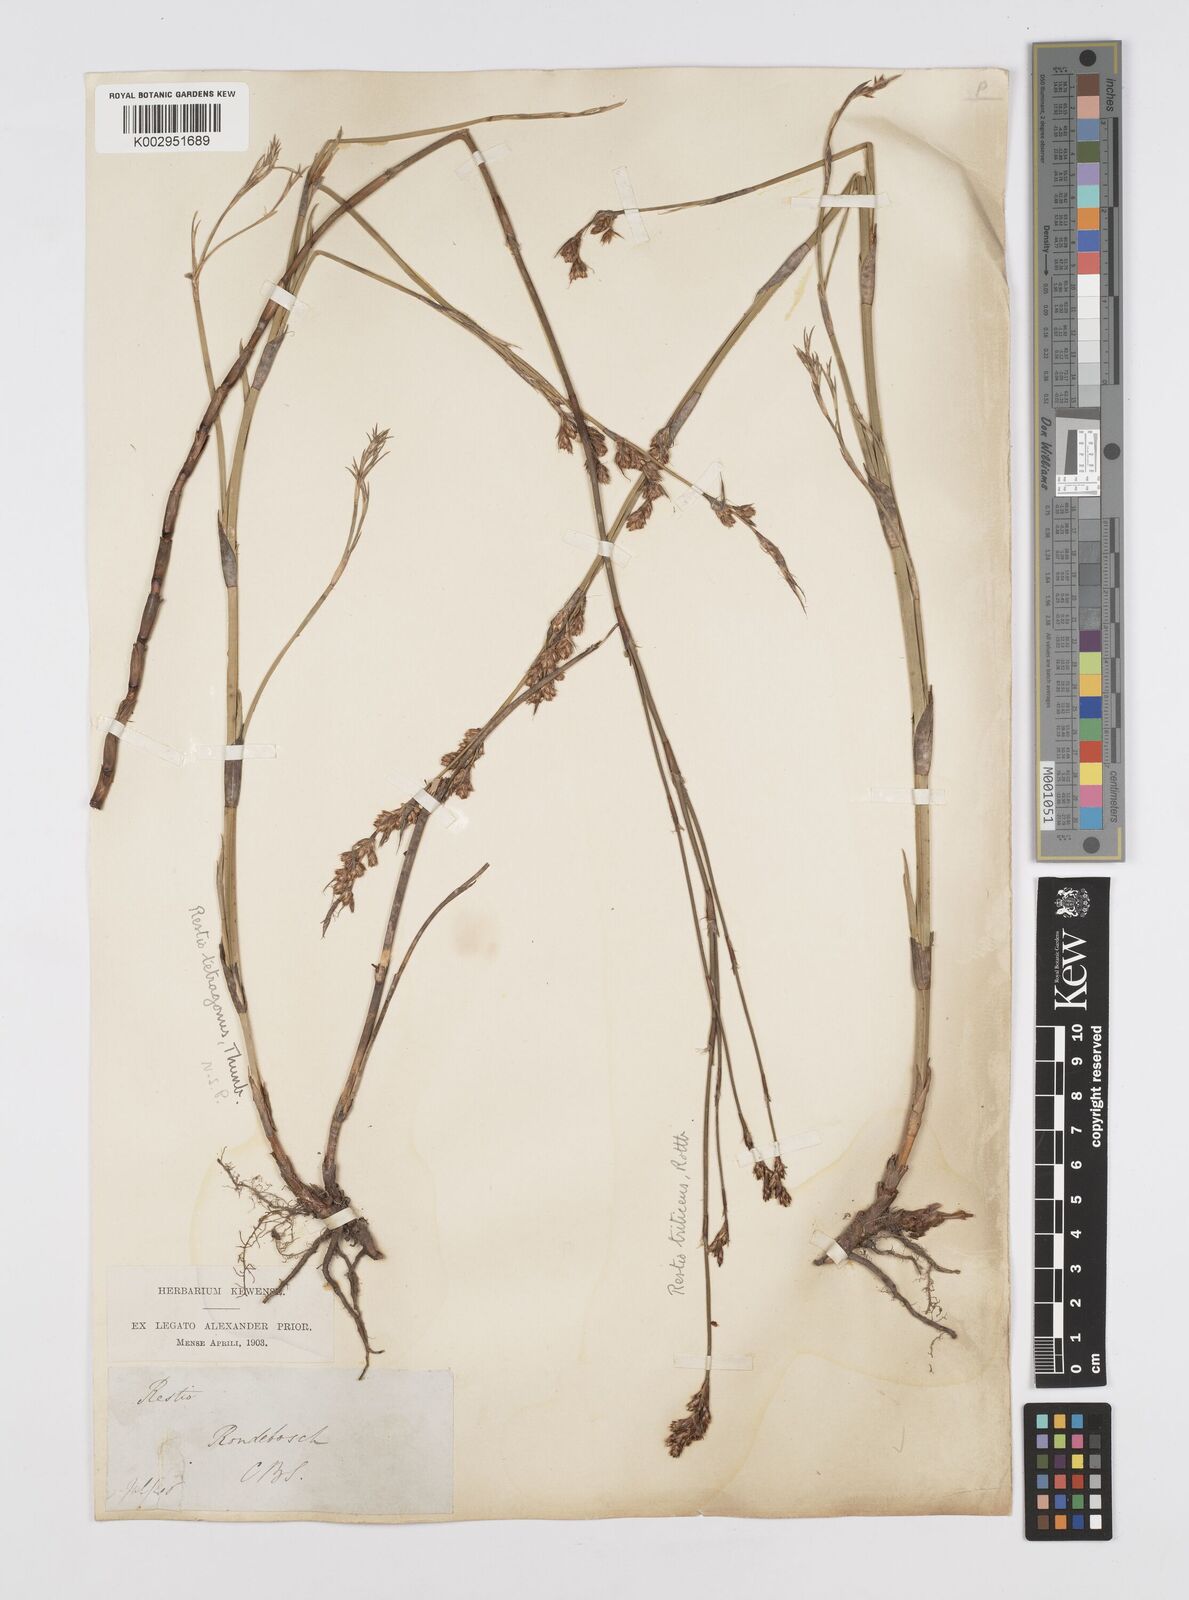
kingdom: Plantae
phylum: Tracheophyta
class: Liliopsida
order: Poales
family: Restionaceae
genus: Restio
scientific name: Restio tetragonus
